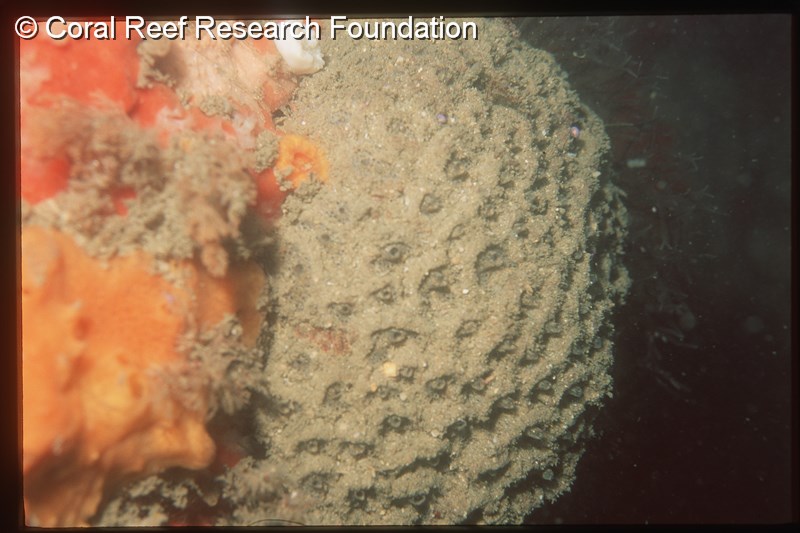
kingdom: Animalia
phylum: Chordata
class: Ascidiacea
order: Aplousobranchia
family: Polyclinidae
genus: Polyclinum
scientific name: Polyclinum isipingense
